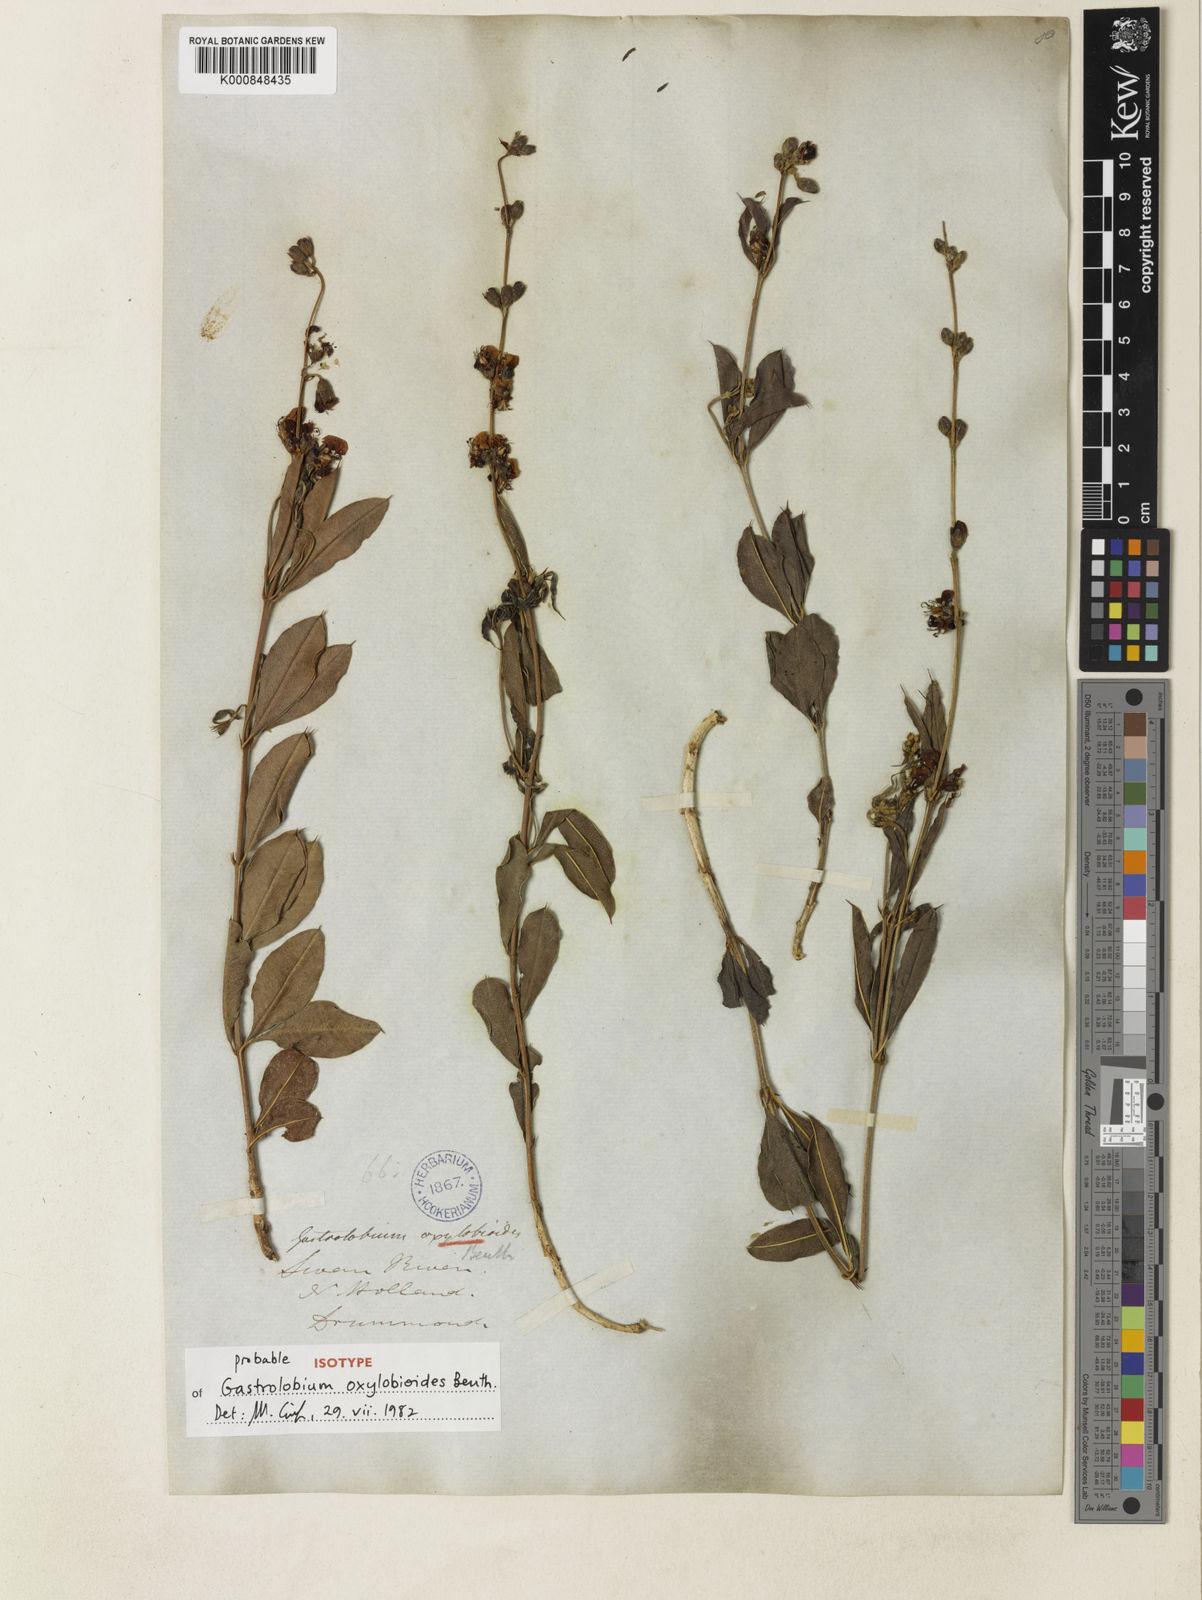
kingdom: Plantae
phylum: Tracheophyta
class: Magnoliopsida
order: Fabales
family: Fabaceae
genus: Gastrolobium
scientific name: Gastrolobium oxylobioides
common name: Champion bay poison
